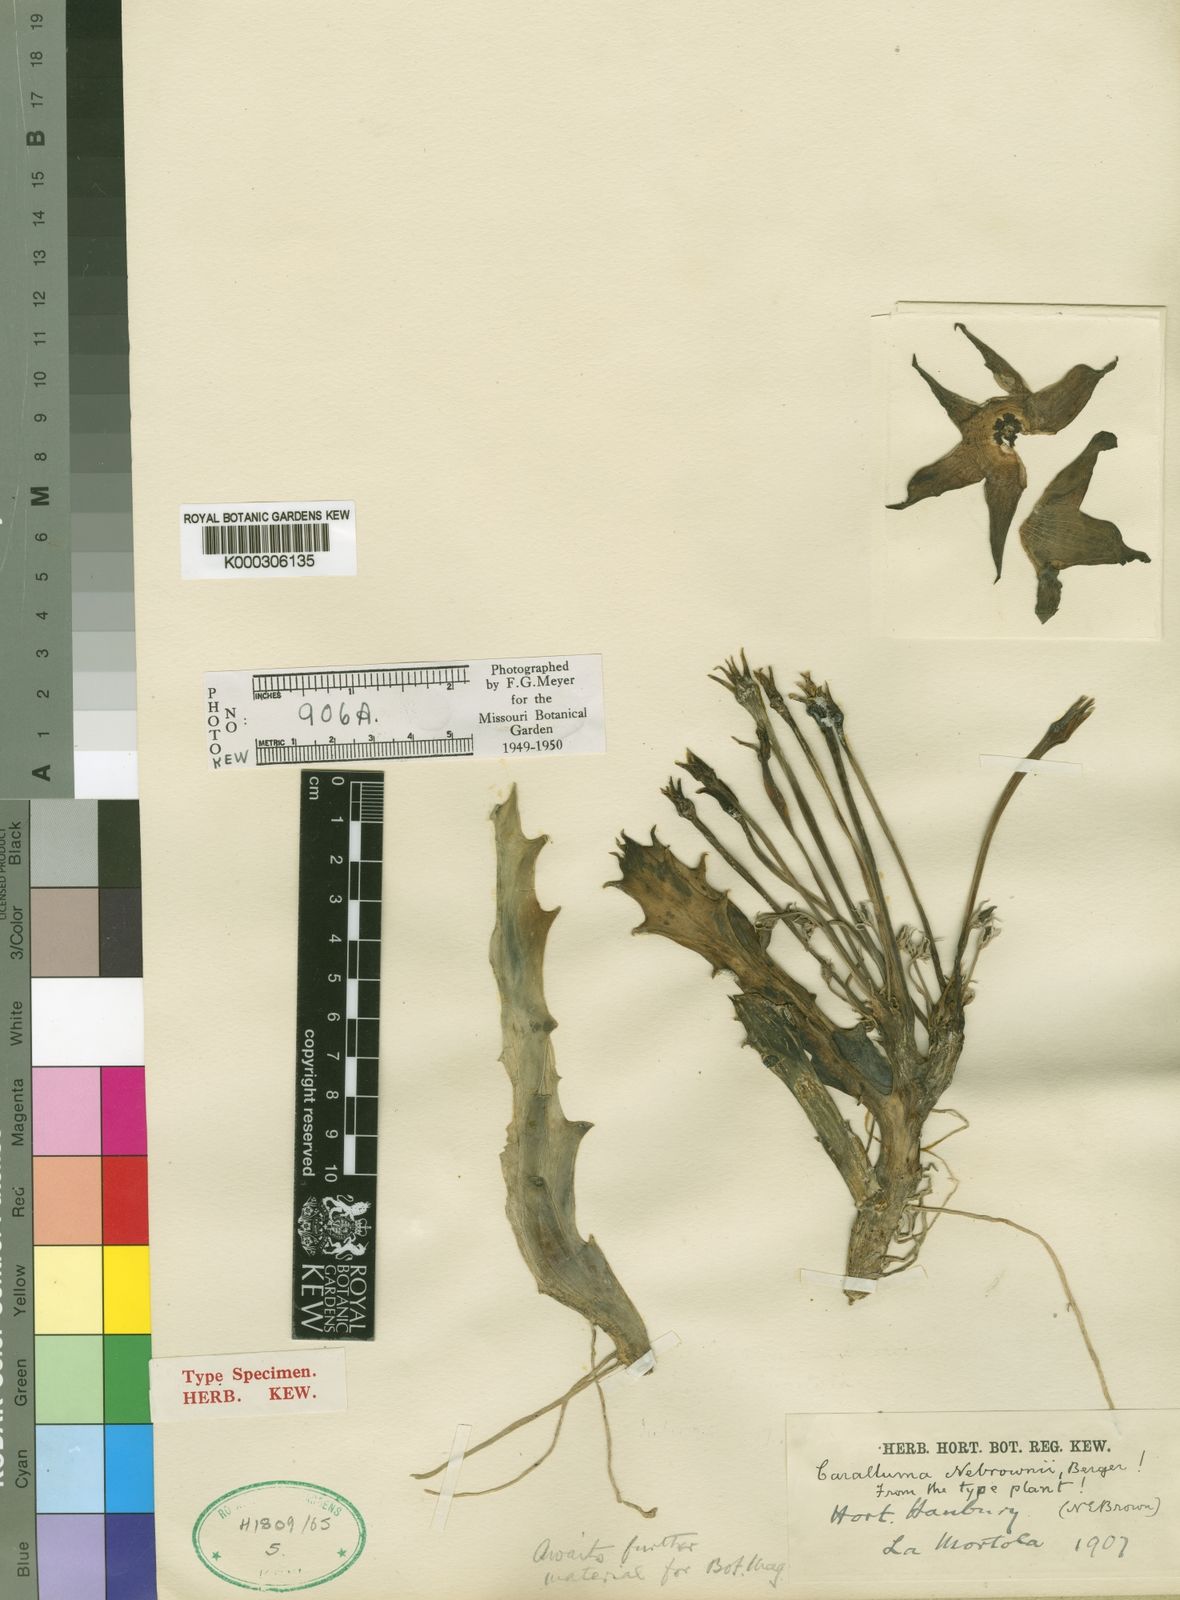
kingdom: Plantae
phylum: Tracheophyta
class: Magnoliopsida
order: Gentianales
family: Apocynaceae
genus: Ceropegia
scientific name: Ceropegia lutea
